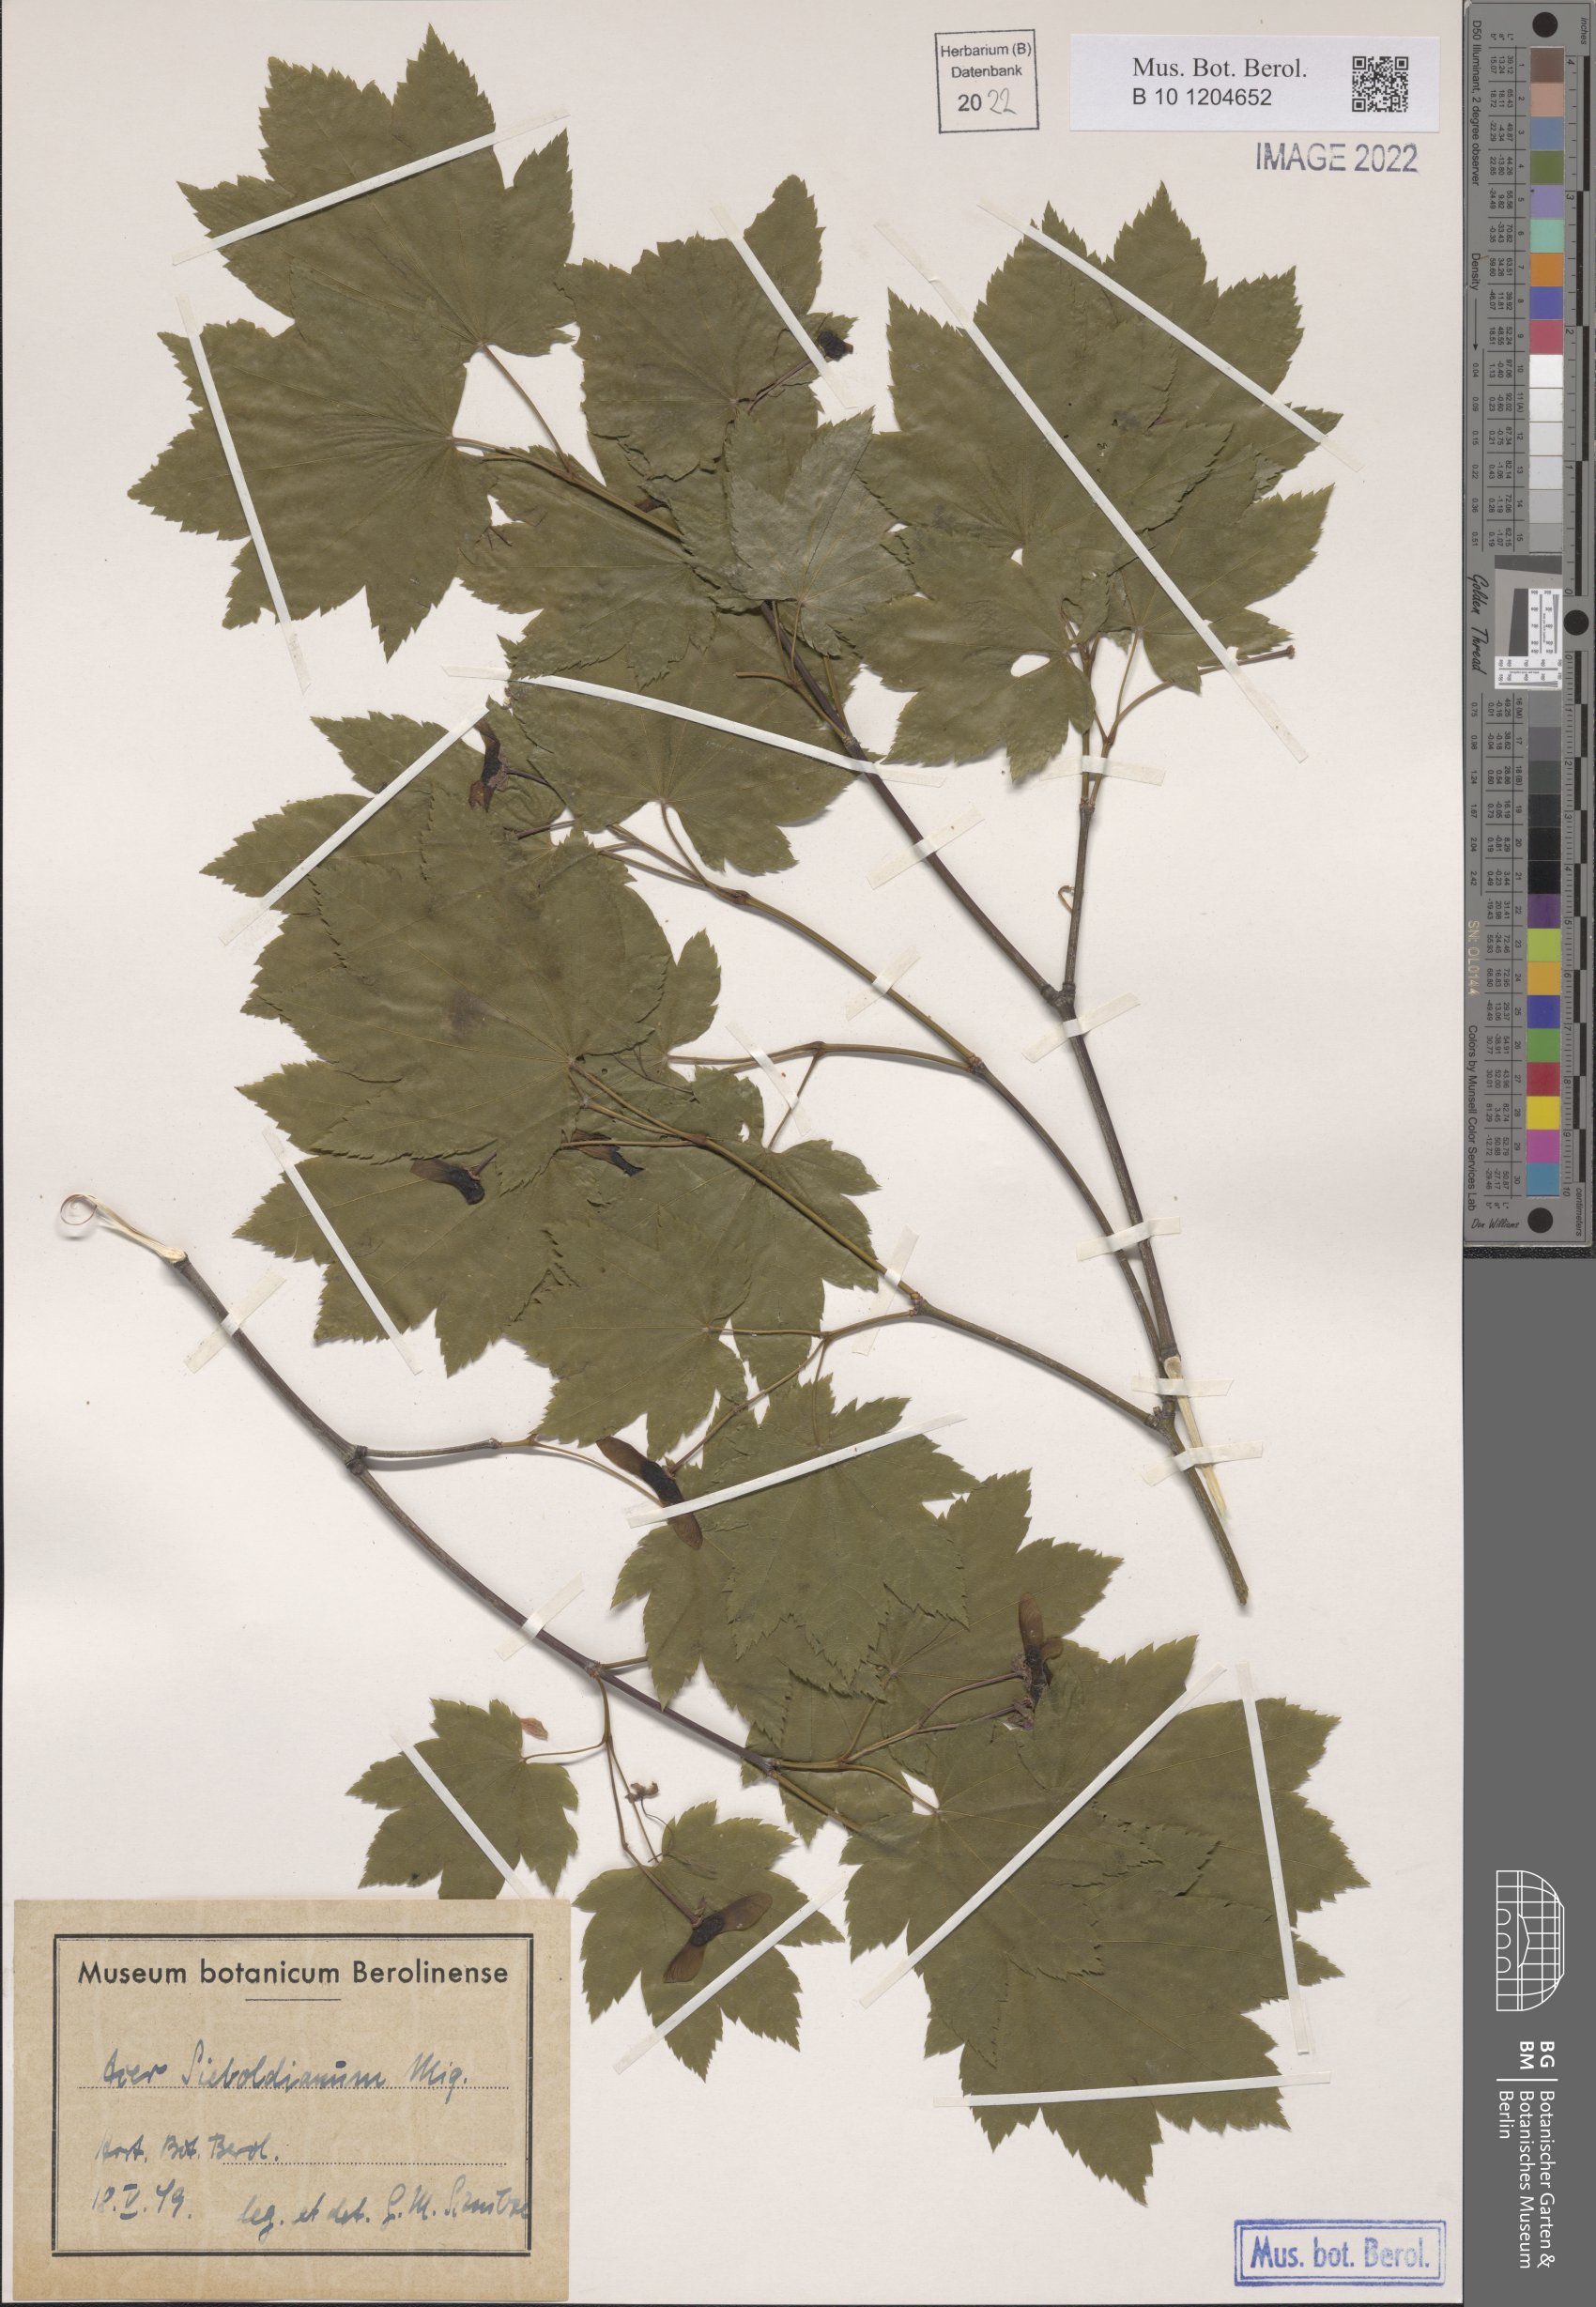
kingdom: Plantae
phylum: Tracheophyta
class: Magnoliopsida
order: Sapindales
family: Sapindaceae
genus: Acer
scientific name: Acer sieboldianum
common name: Siebold's maple
